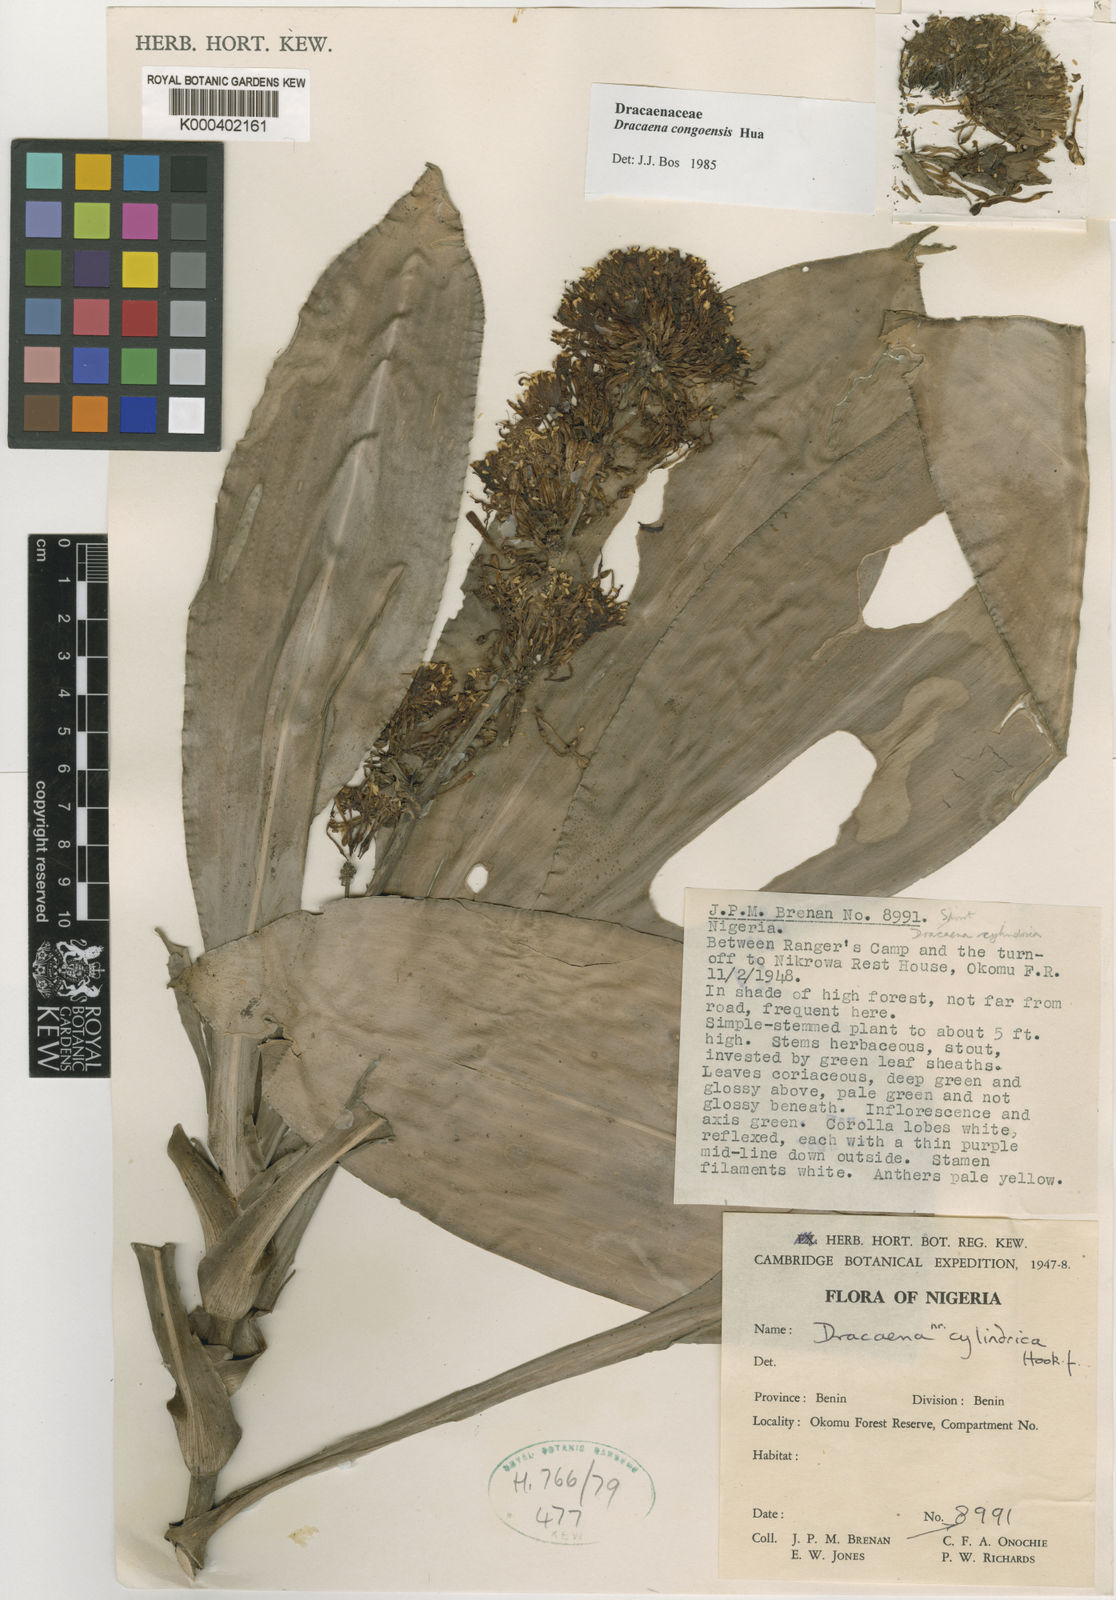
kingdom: Plantae
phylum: Tracheophyta
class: Liliopsida
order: Asparagales
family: Asparagaceae
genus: Dracaena
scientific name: Dracaena congoensis
